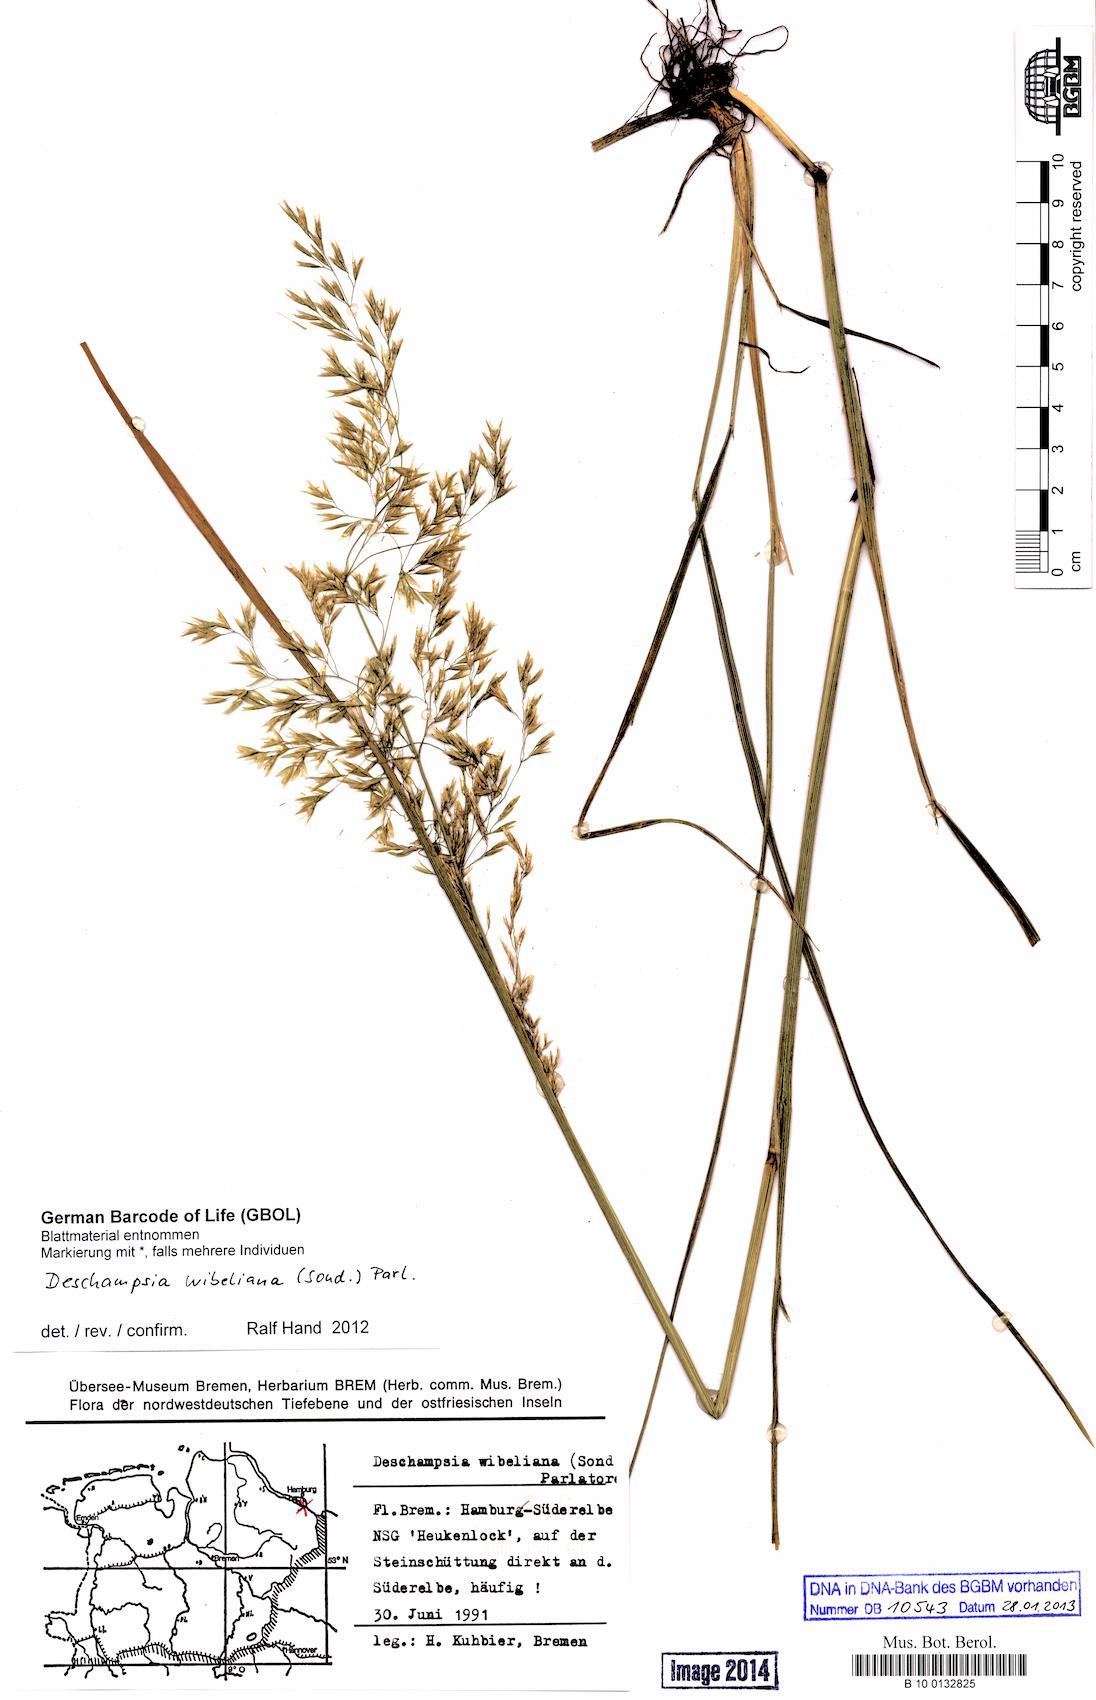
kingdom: Plantae
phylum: Tracheophyta
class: Liliopsida
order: Poales
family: Poaceae
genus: Deschampsia
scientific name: Deschampsia cespitosa
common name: Tufted hair-grass
